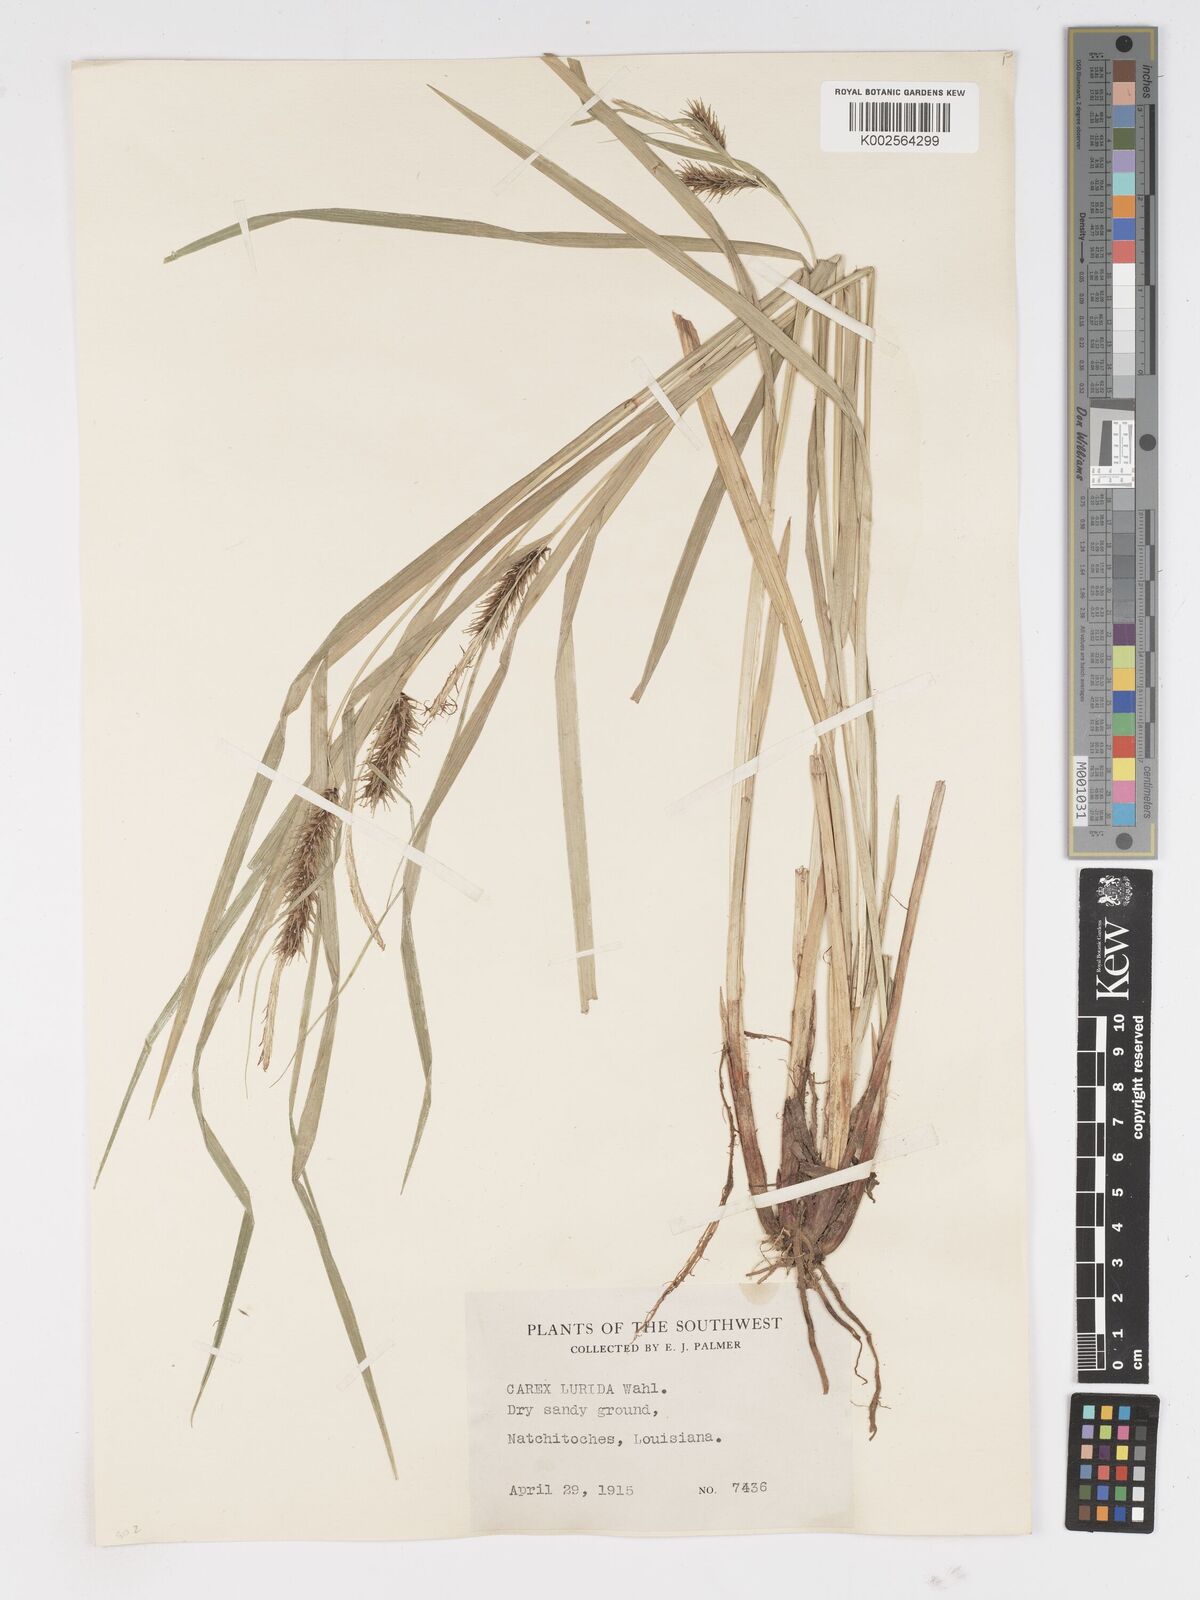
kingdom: Plantae
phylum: Tracheophyta
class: Liliopsida
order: Poales
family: Cyperaceae
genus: Carex
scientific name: Carex lurida
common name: Sallow sedge
